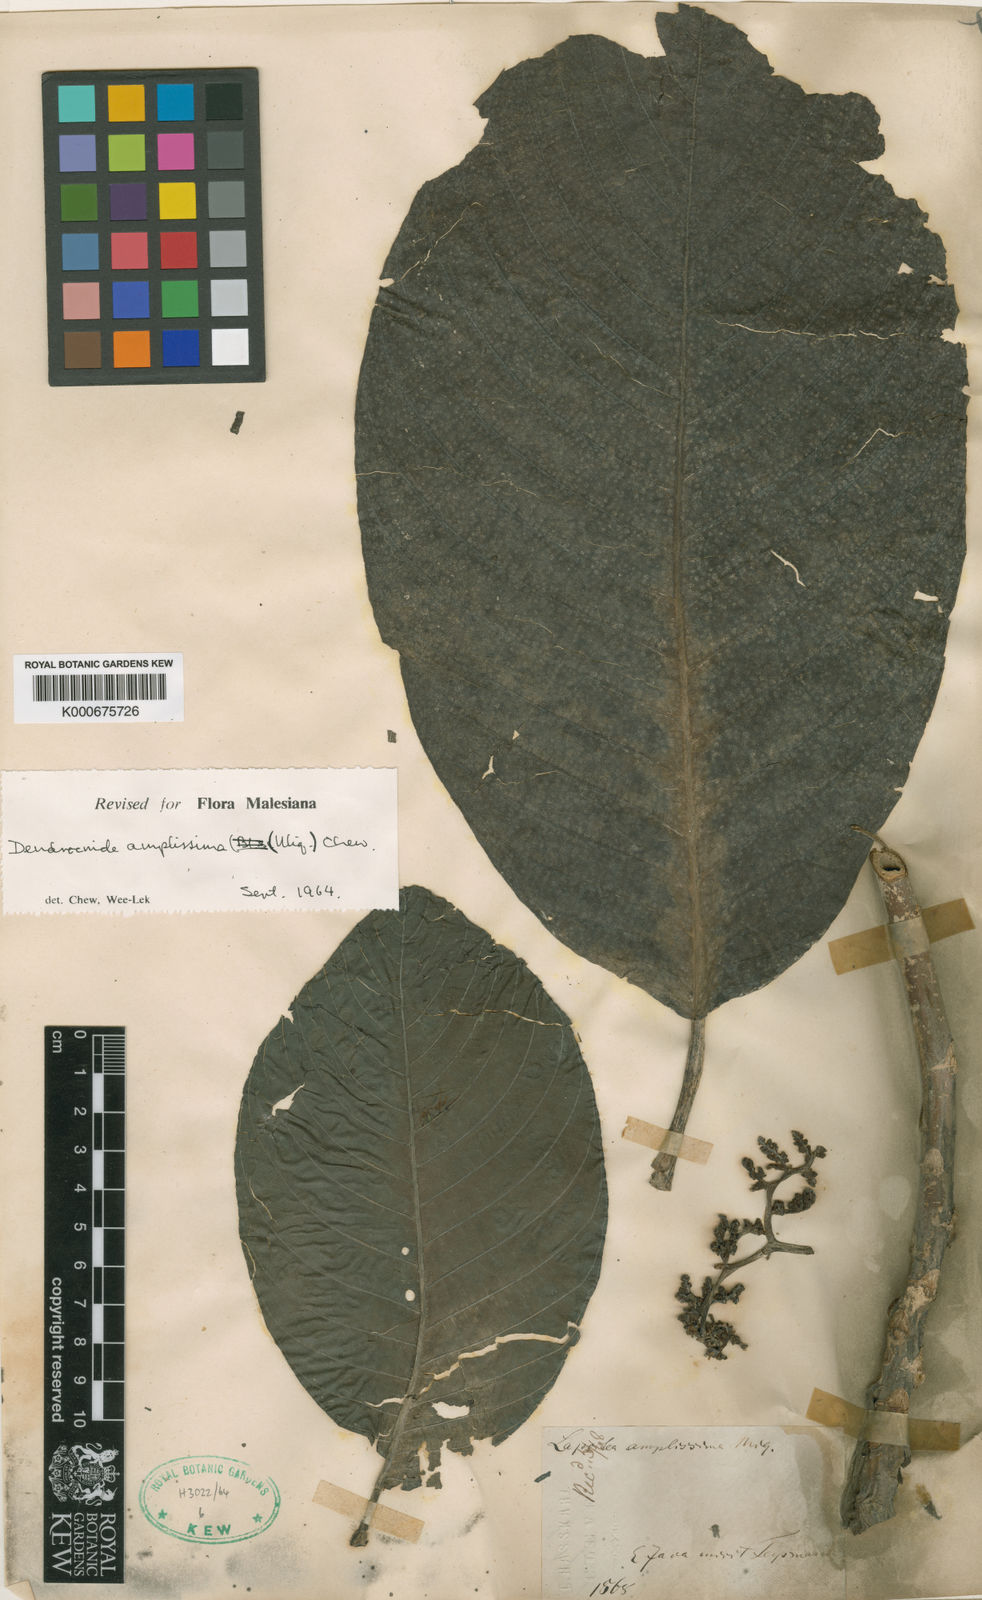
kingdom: Plantae
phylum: Tracheophyta
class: Magnoliopsida
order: Rosales
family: Urticaceae
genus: Dendrocnide
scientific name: Dendrocnide amplissima
